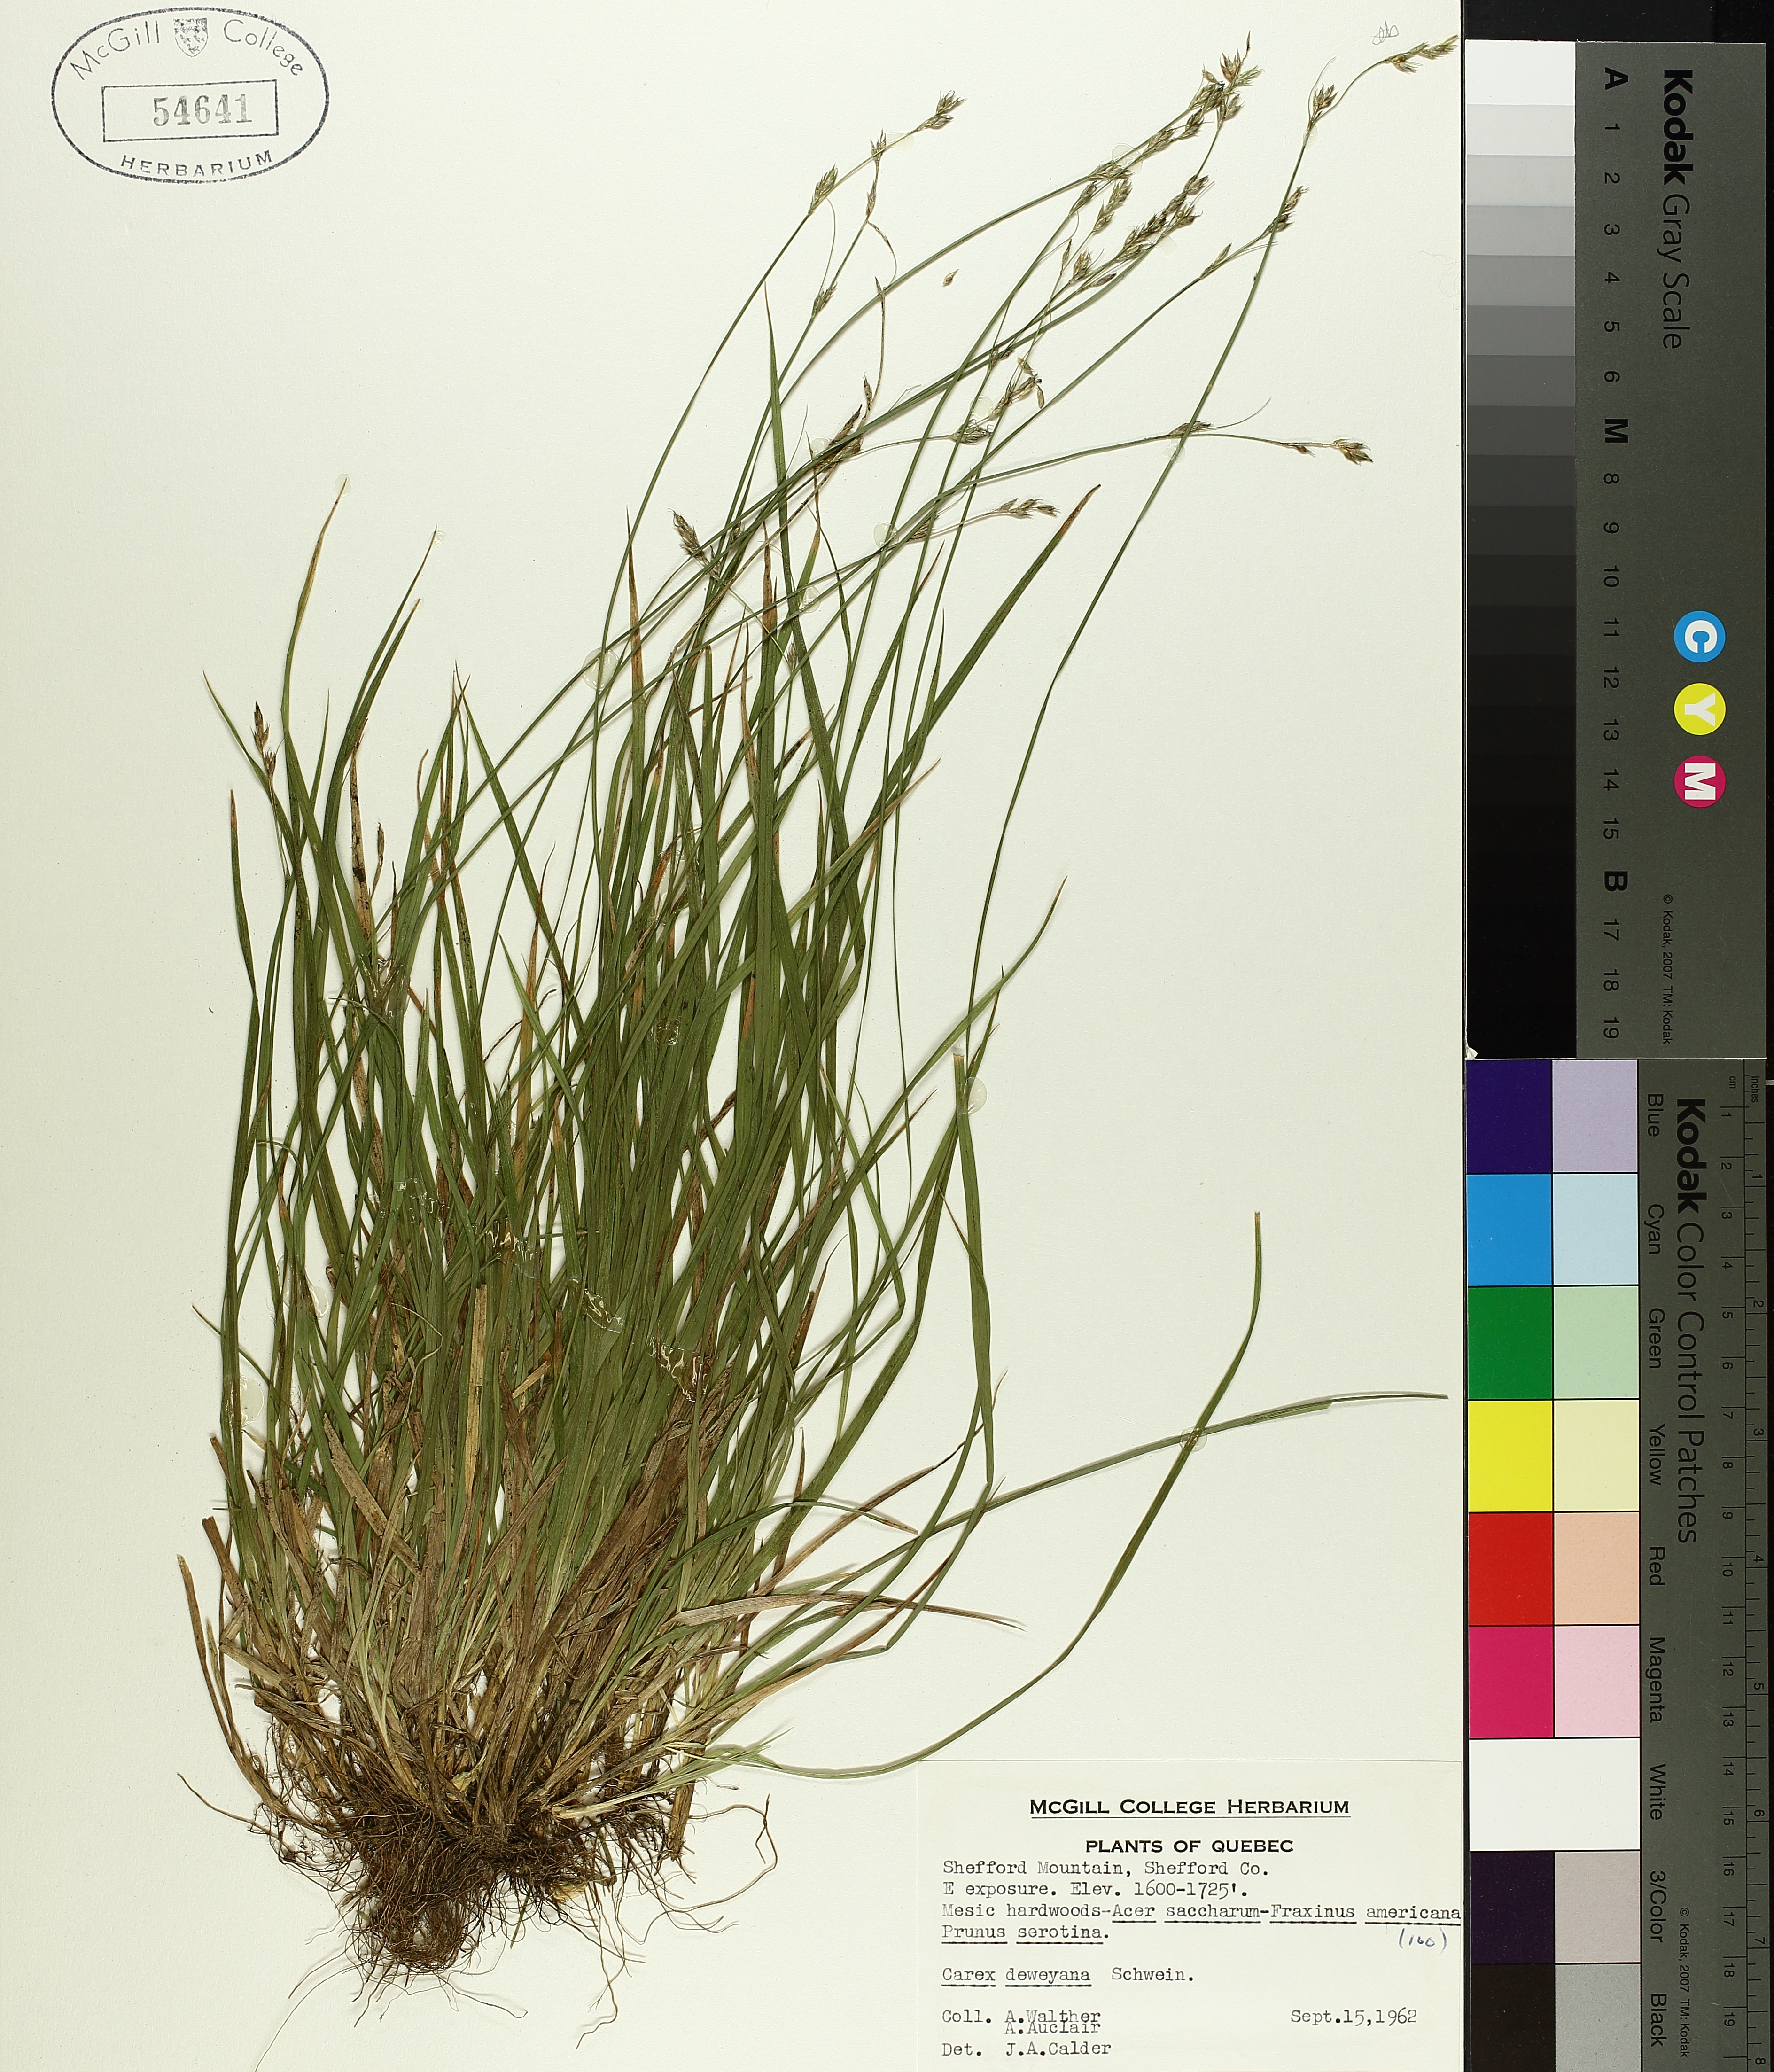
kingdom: Plantae
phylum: Tracheophyta
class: Liliopsida
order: Poales
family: Cyperaceae
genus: Carex
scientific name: Carex deweyana
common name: Dewey's sedge
